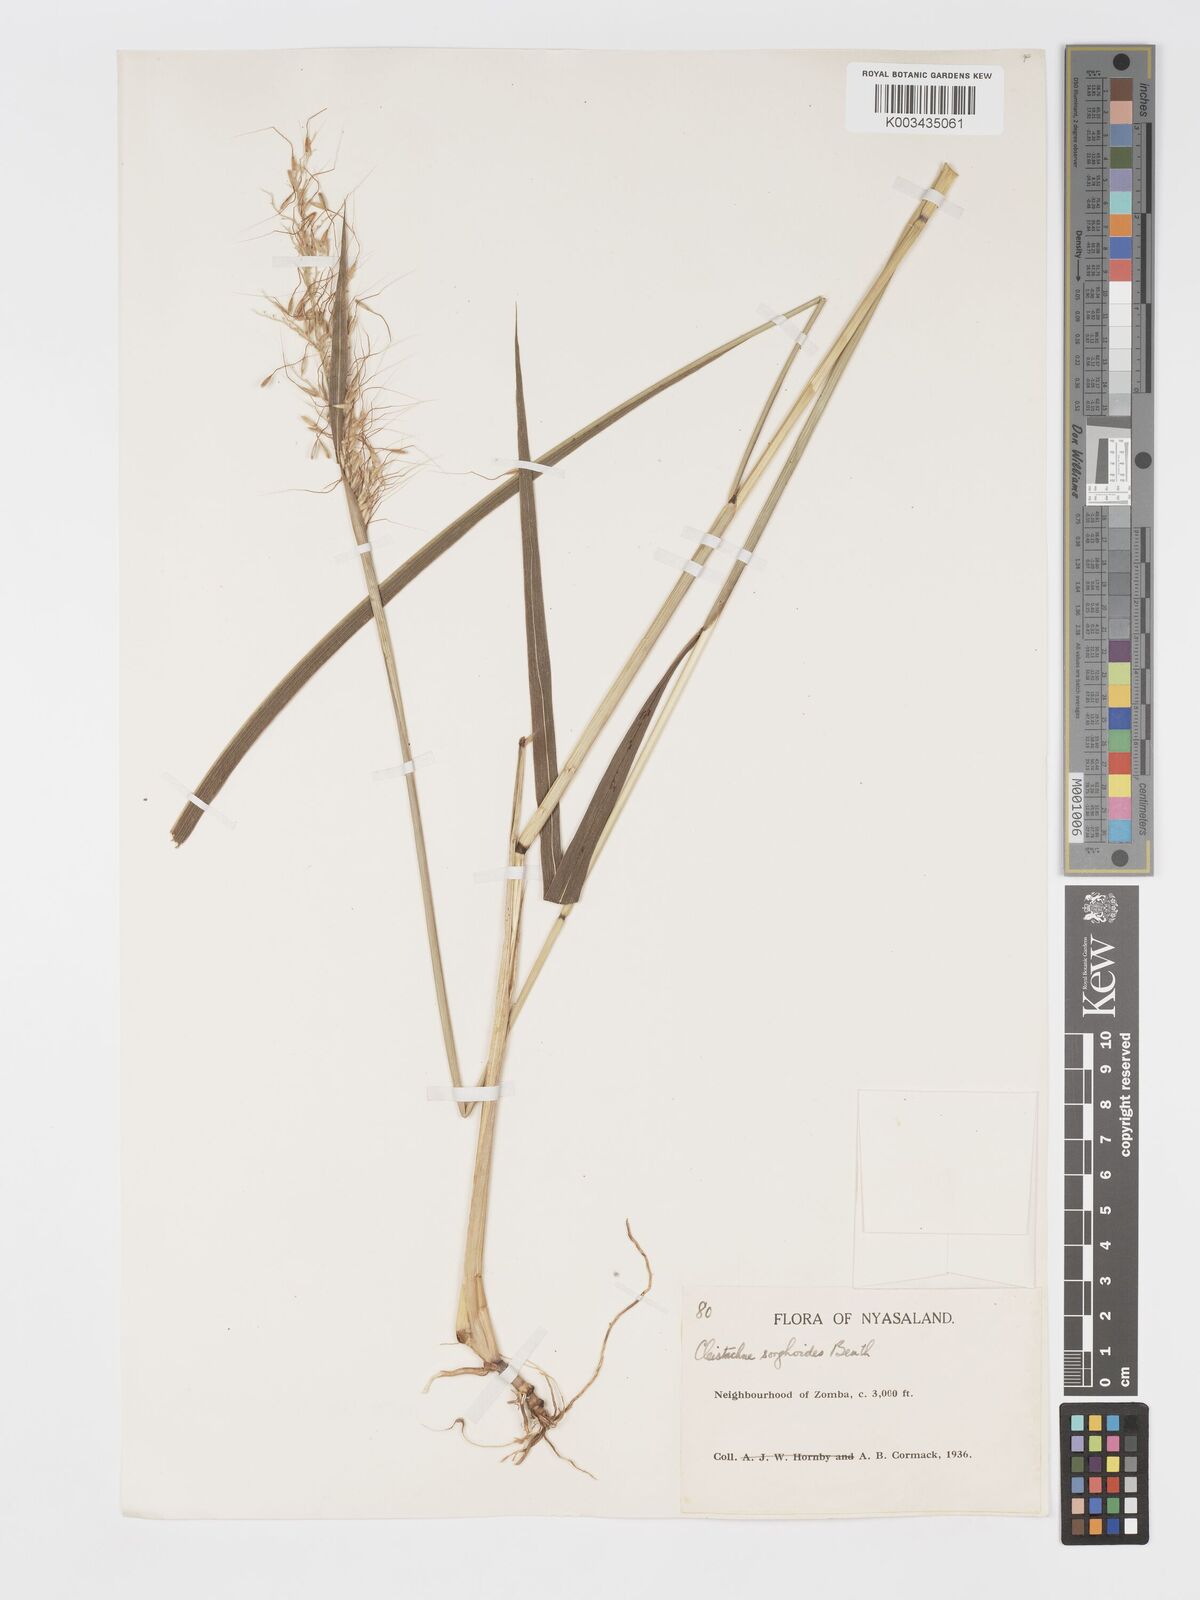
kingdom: Plantae
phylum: Tracheophyta
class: Liliopsida
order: Poales
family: Poaceae
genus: Cleistachne
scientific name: Cleistachne sorghoides
